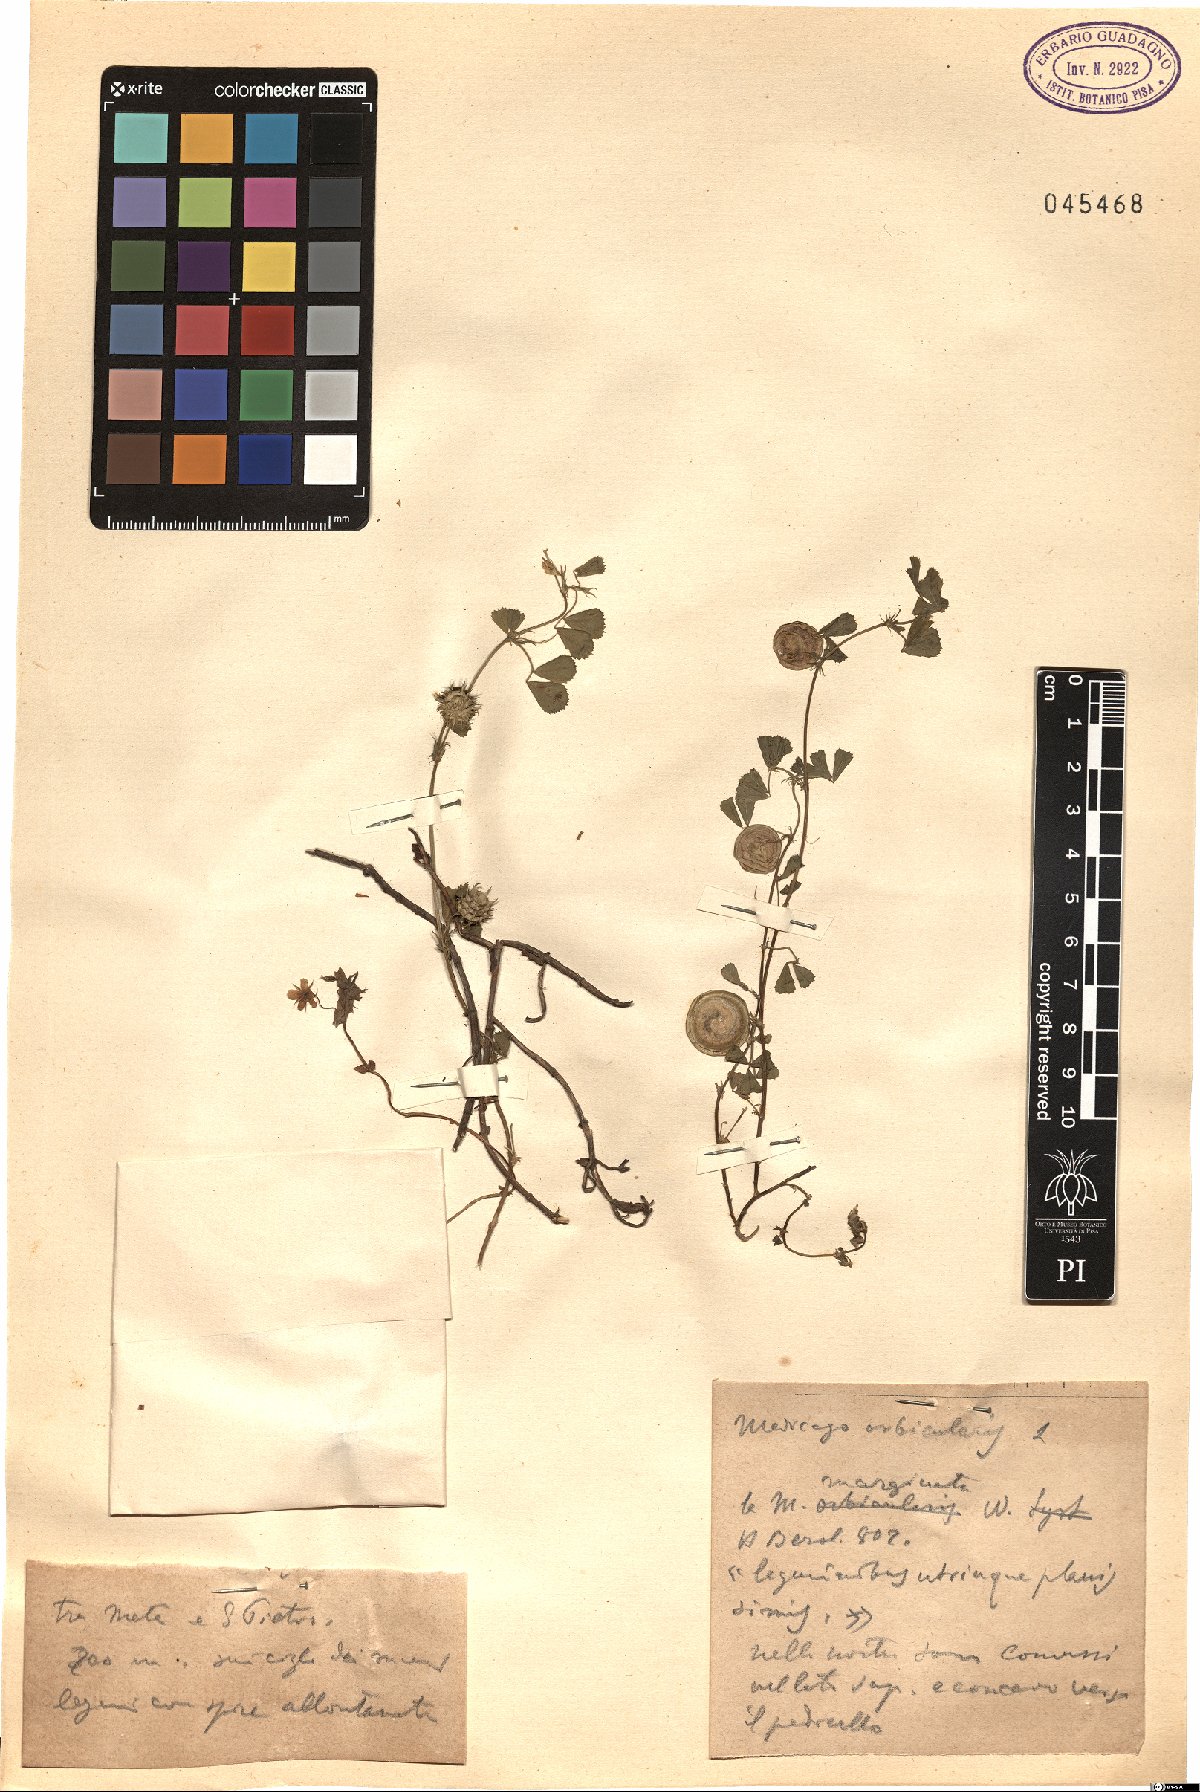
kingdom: Plantae
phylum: Tracheophyta
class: Magnoliopsida
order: Fabales
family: Fabaceae
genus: Medicago
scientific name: Medicago orbicularis
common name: Button medick
